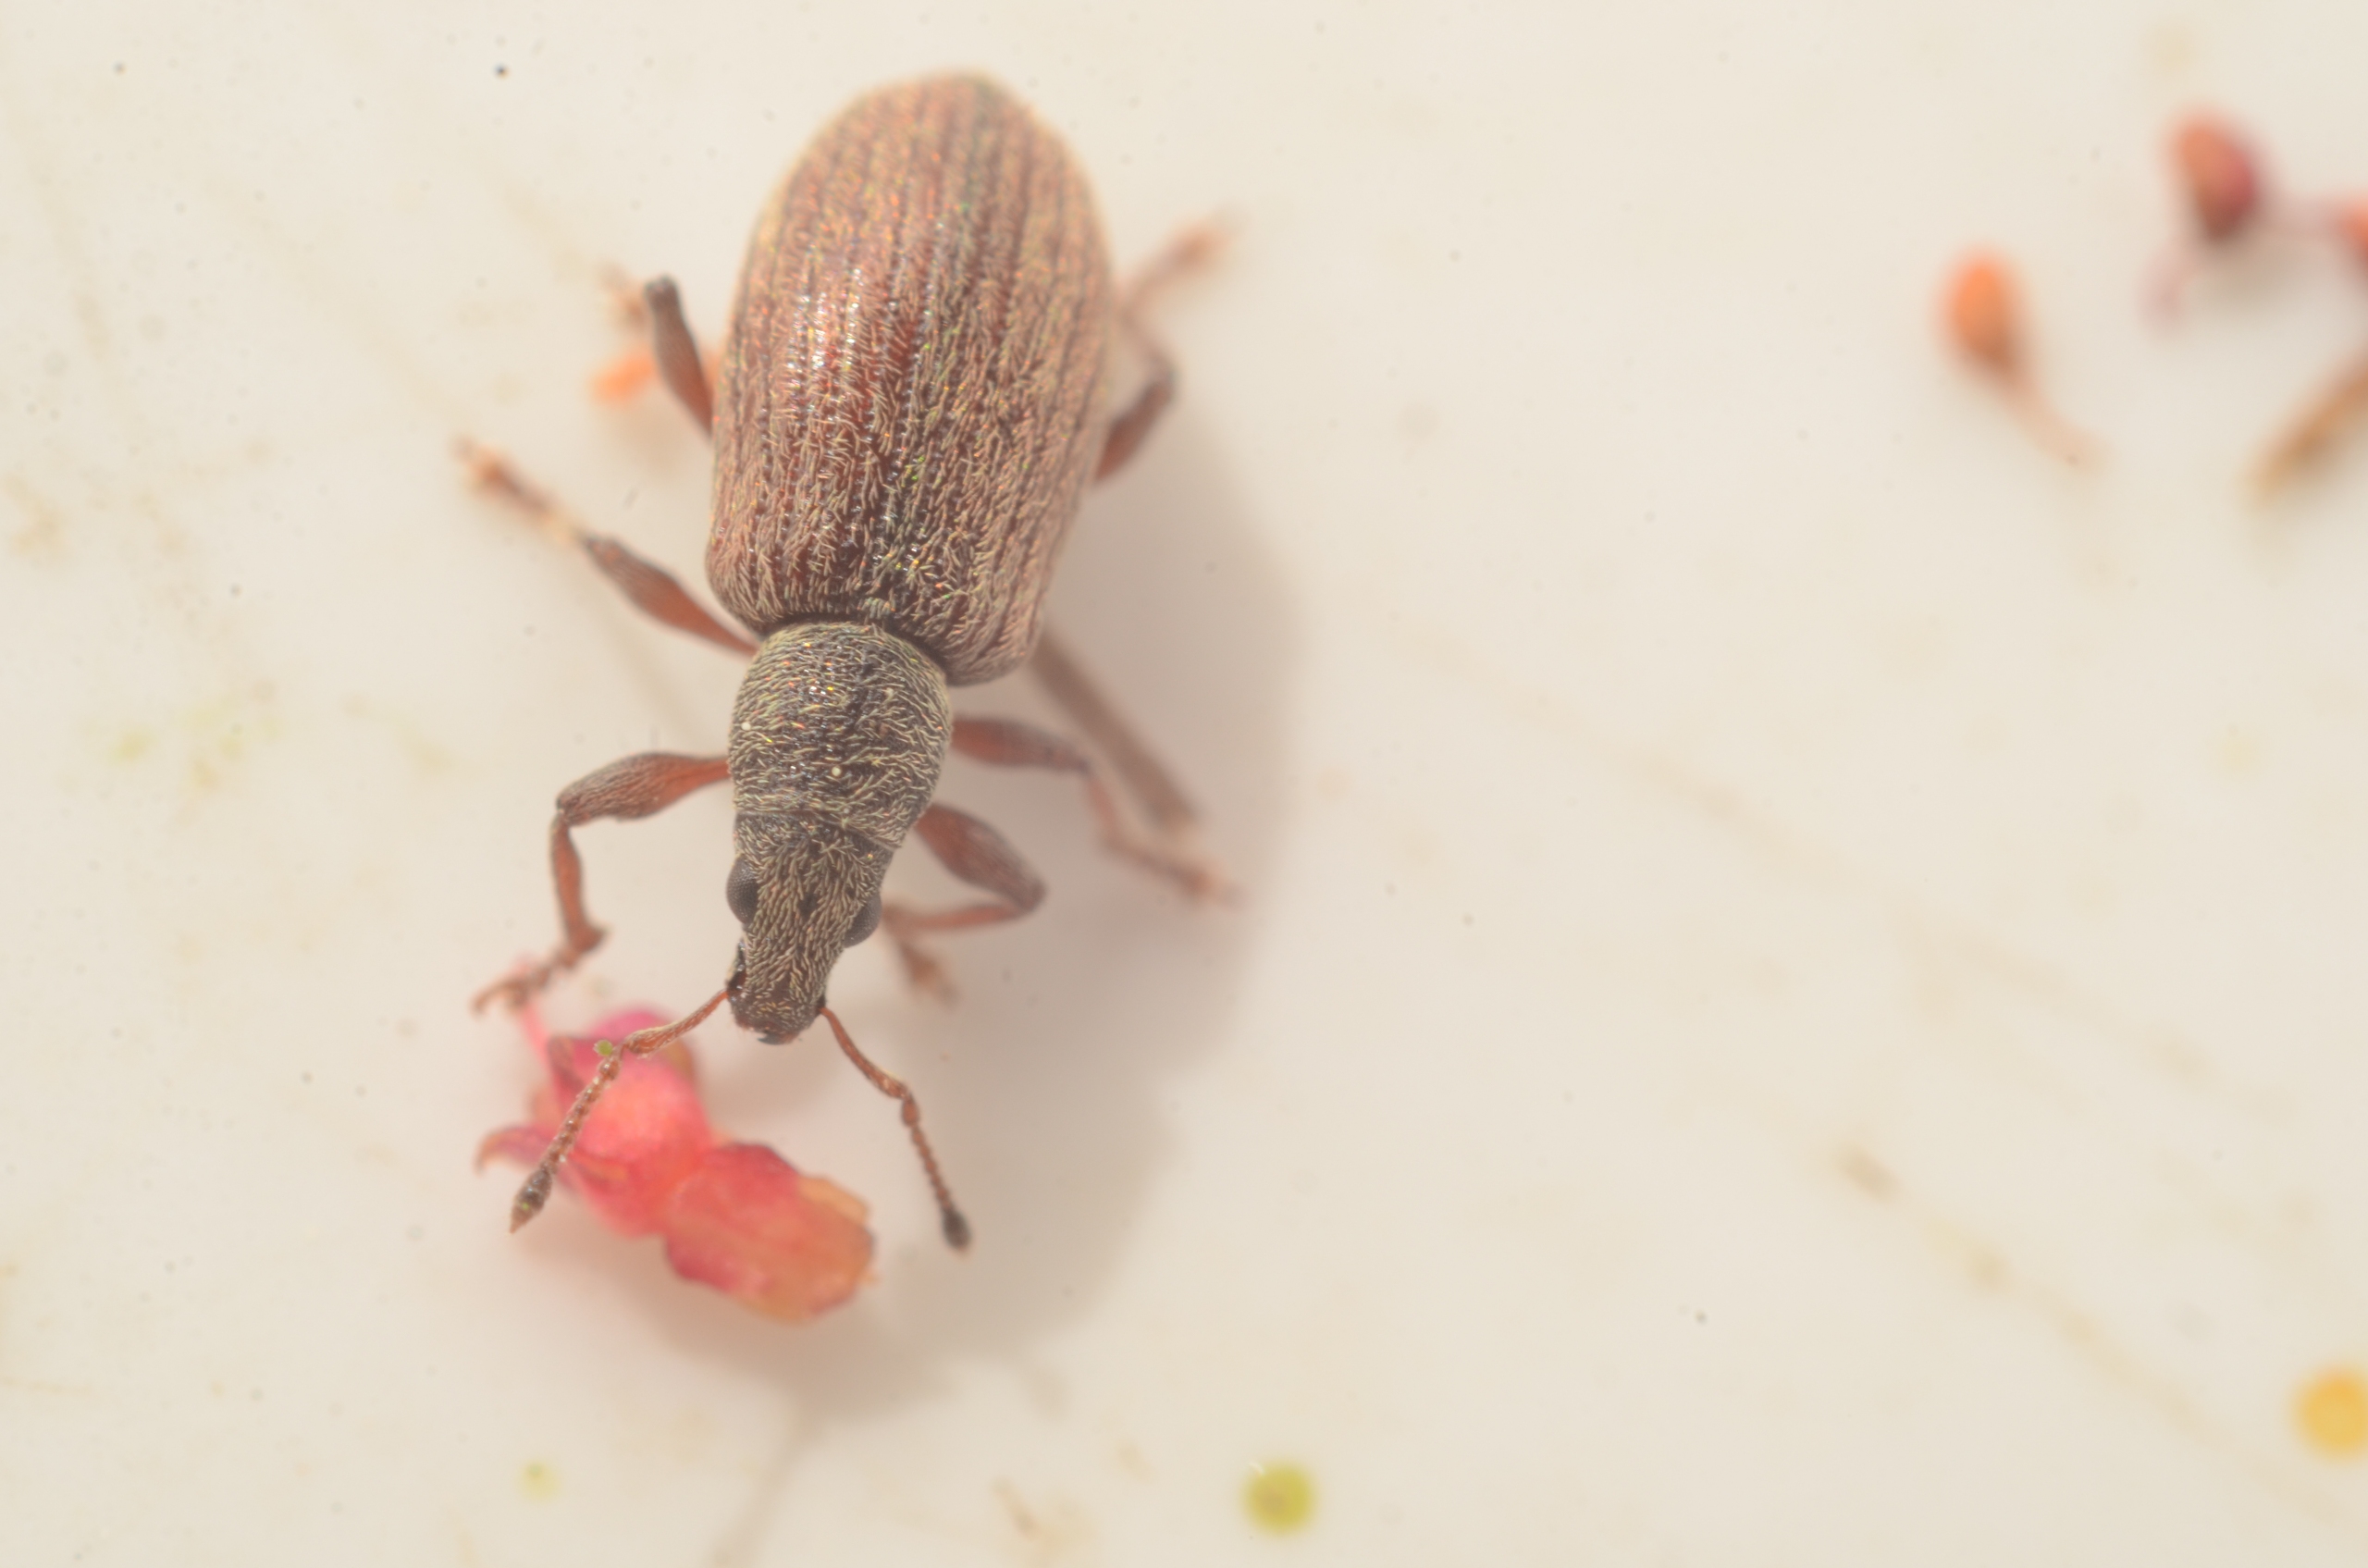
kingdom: Animalia
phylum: Arthropoda
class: Insecta
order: Coleoptera
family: Curculionidae
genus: Polydrusus
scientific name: Polydrusus aeratus
